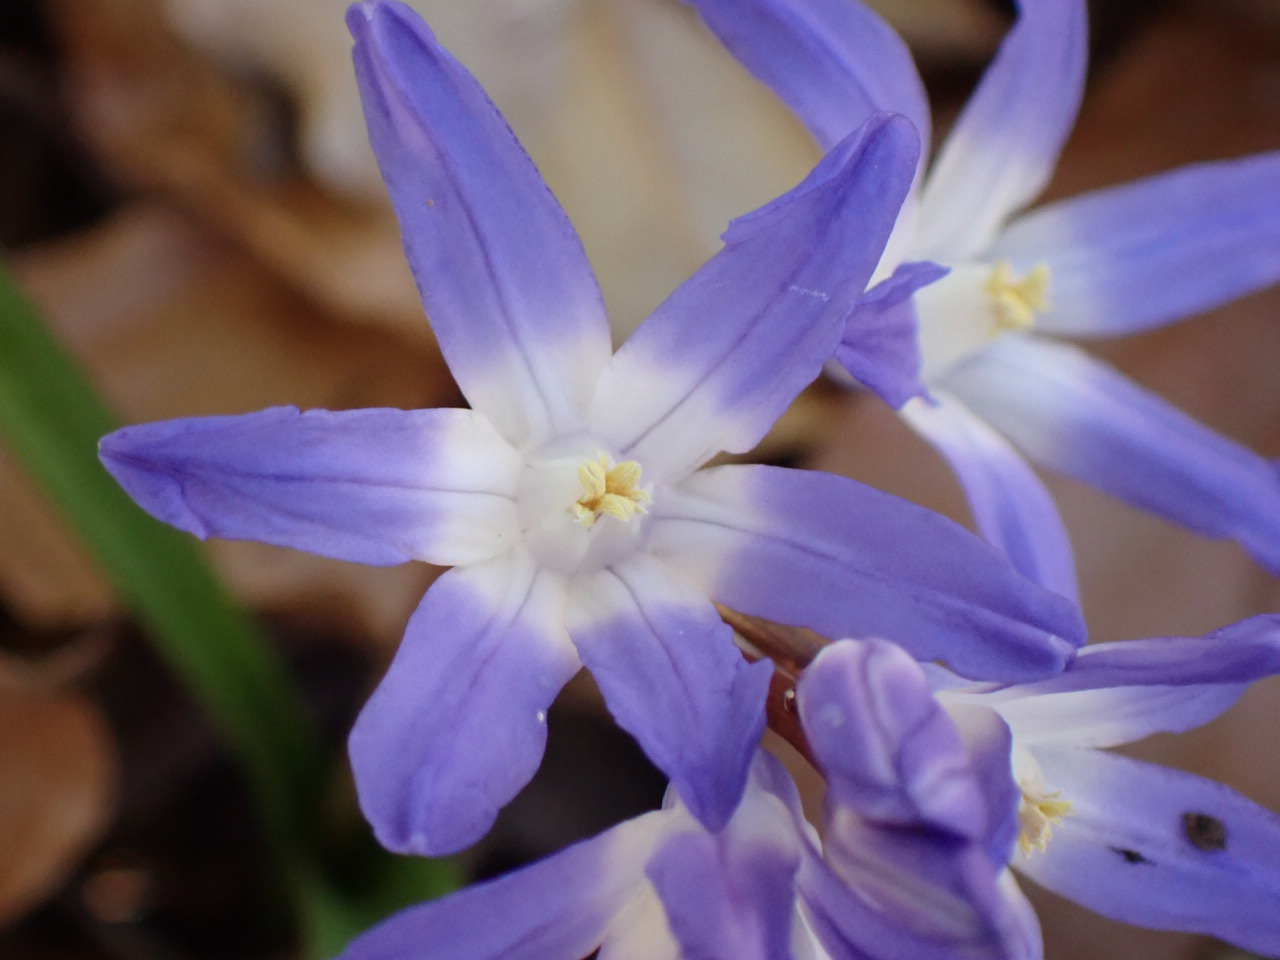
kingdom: Plantae
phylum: Tracheophyta
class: Liliopsida
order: Asparagales
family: Asparagaceae
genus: Scilla
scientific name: Scilla forbesii
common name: Almindelig snepryd
